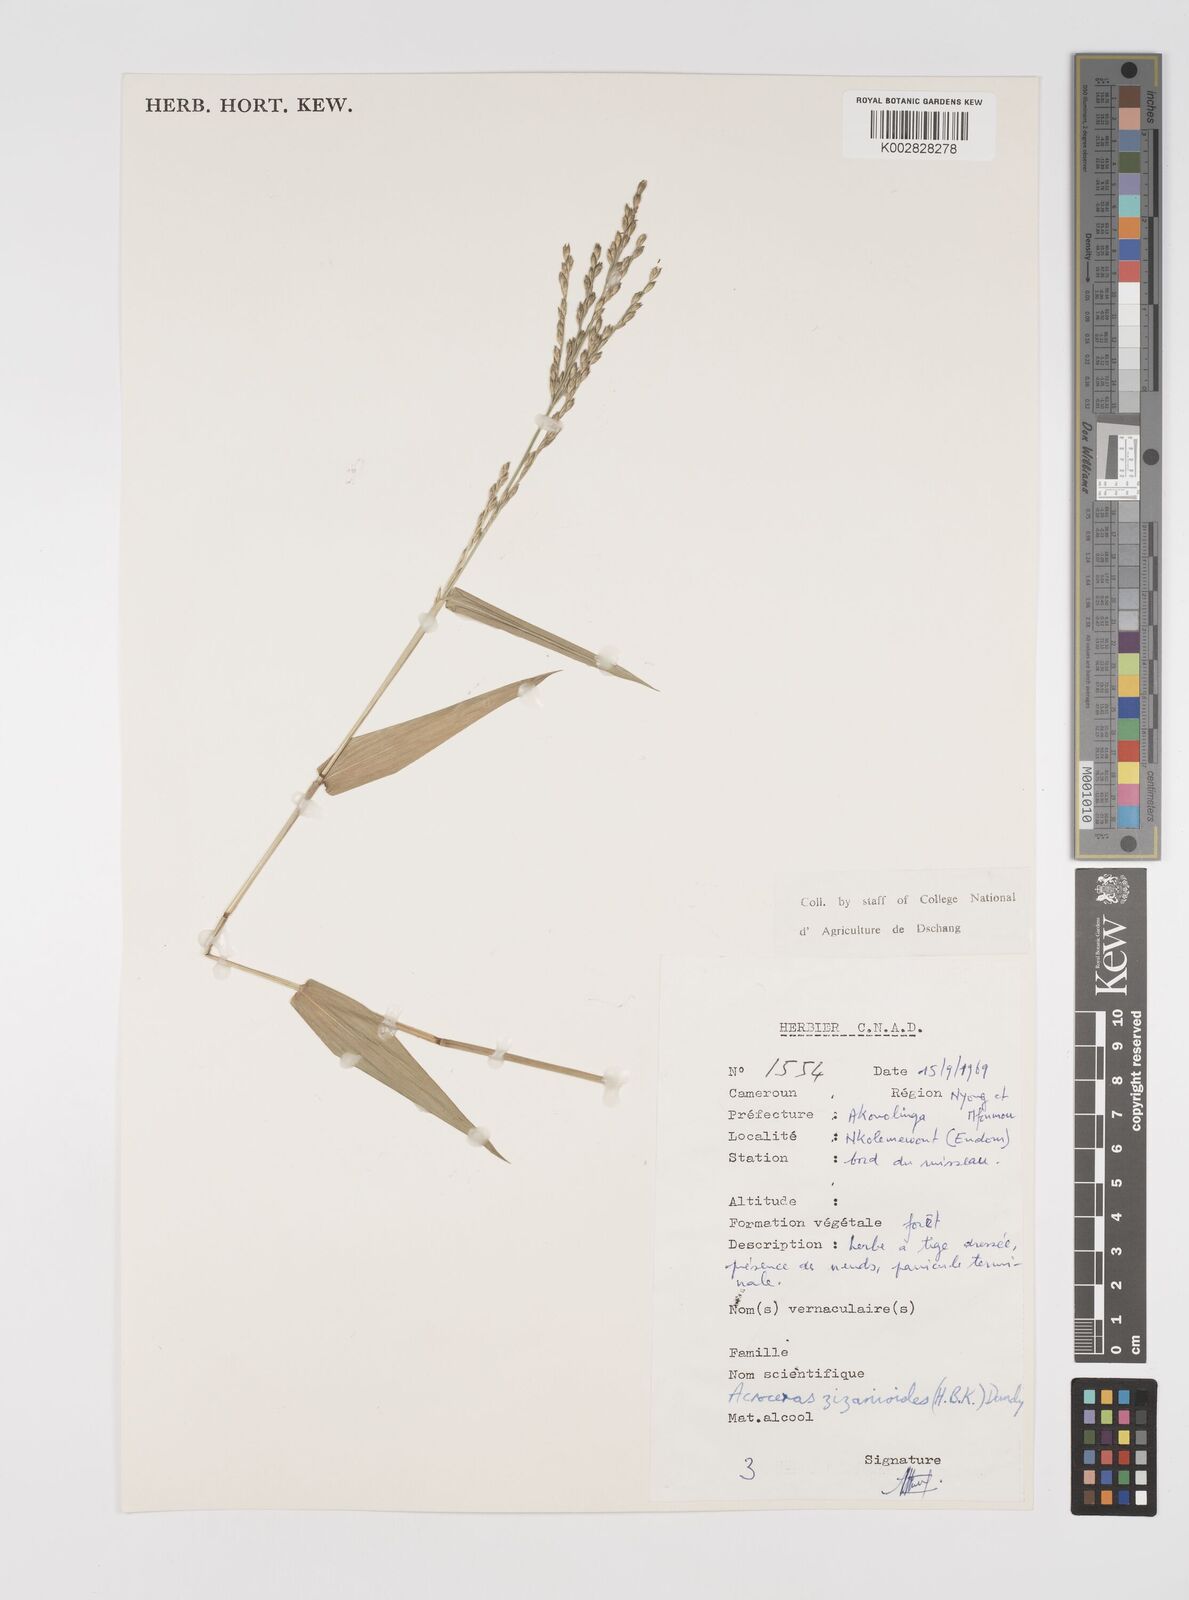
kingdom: Plantae
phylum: Tracheophyta
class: Liliopsida
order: Poales
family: Poaceae
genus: Acroceras
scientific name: Acroceras zizanioides
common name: Oat grass
